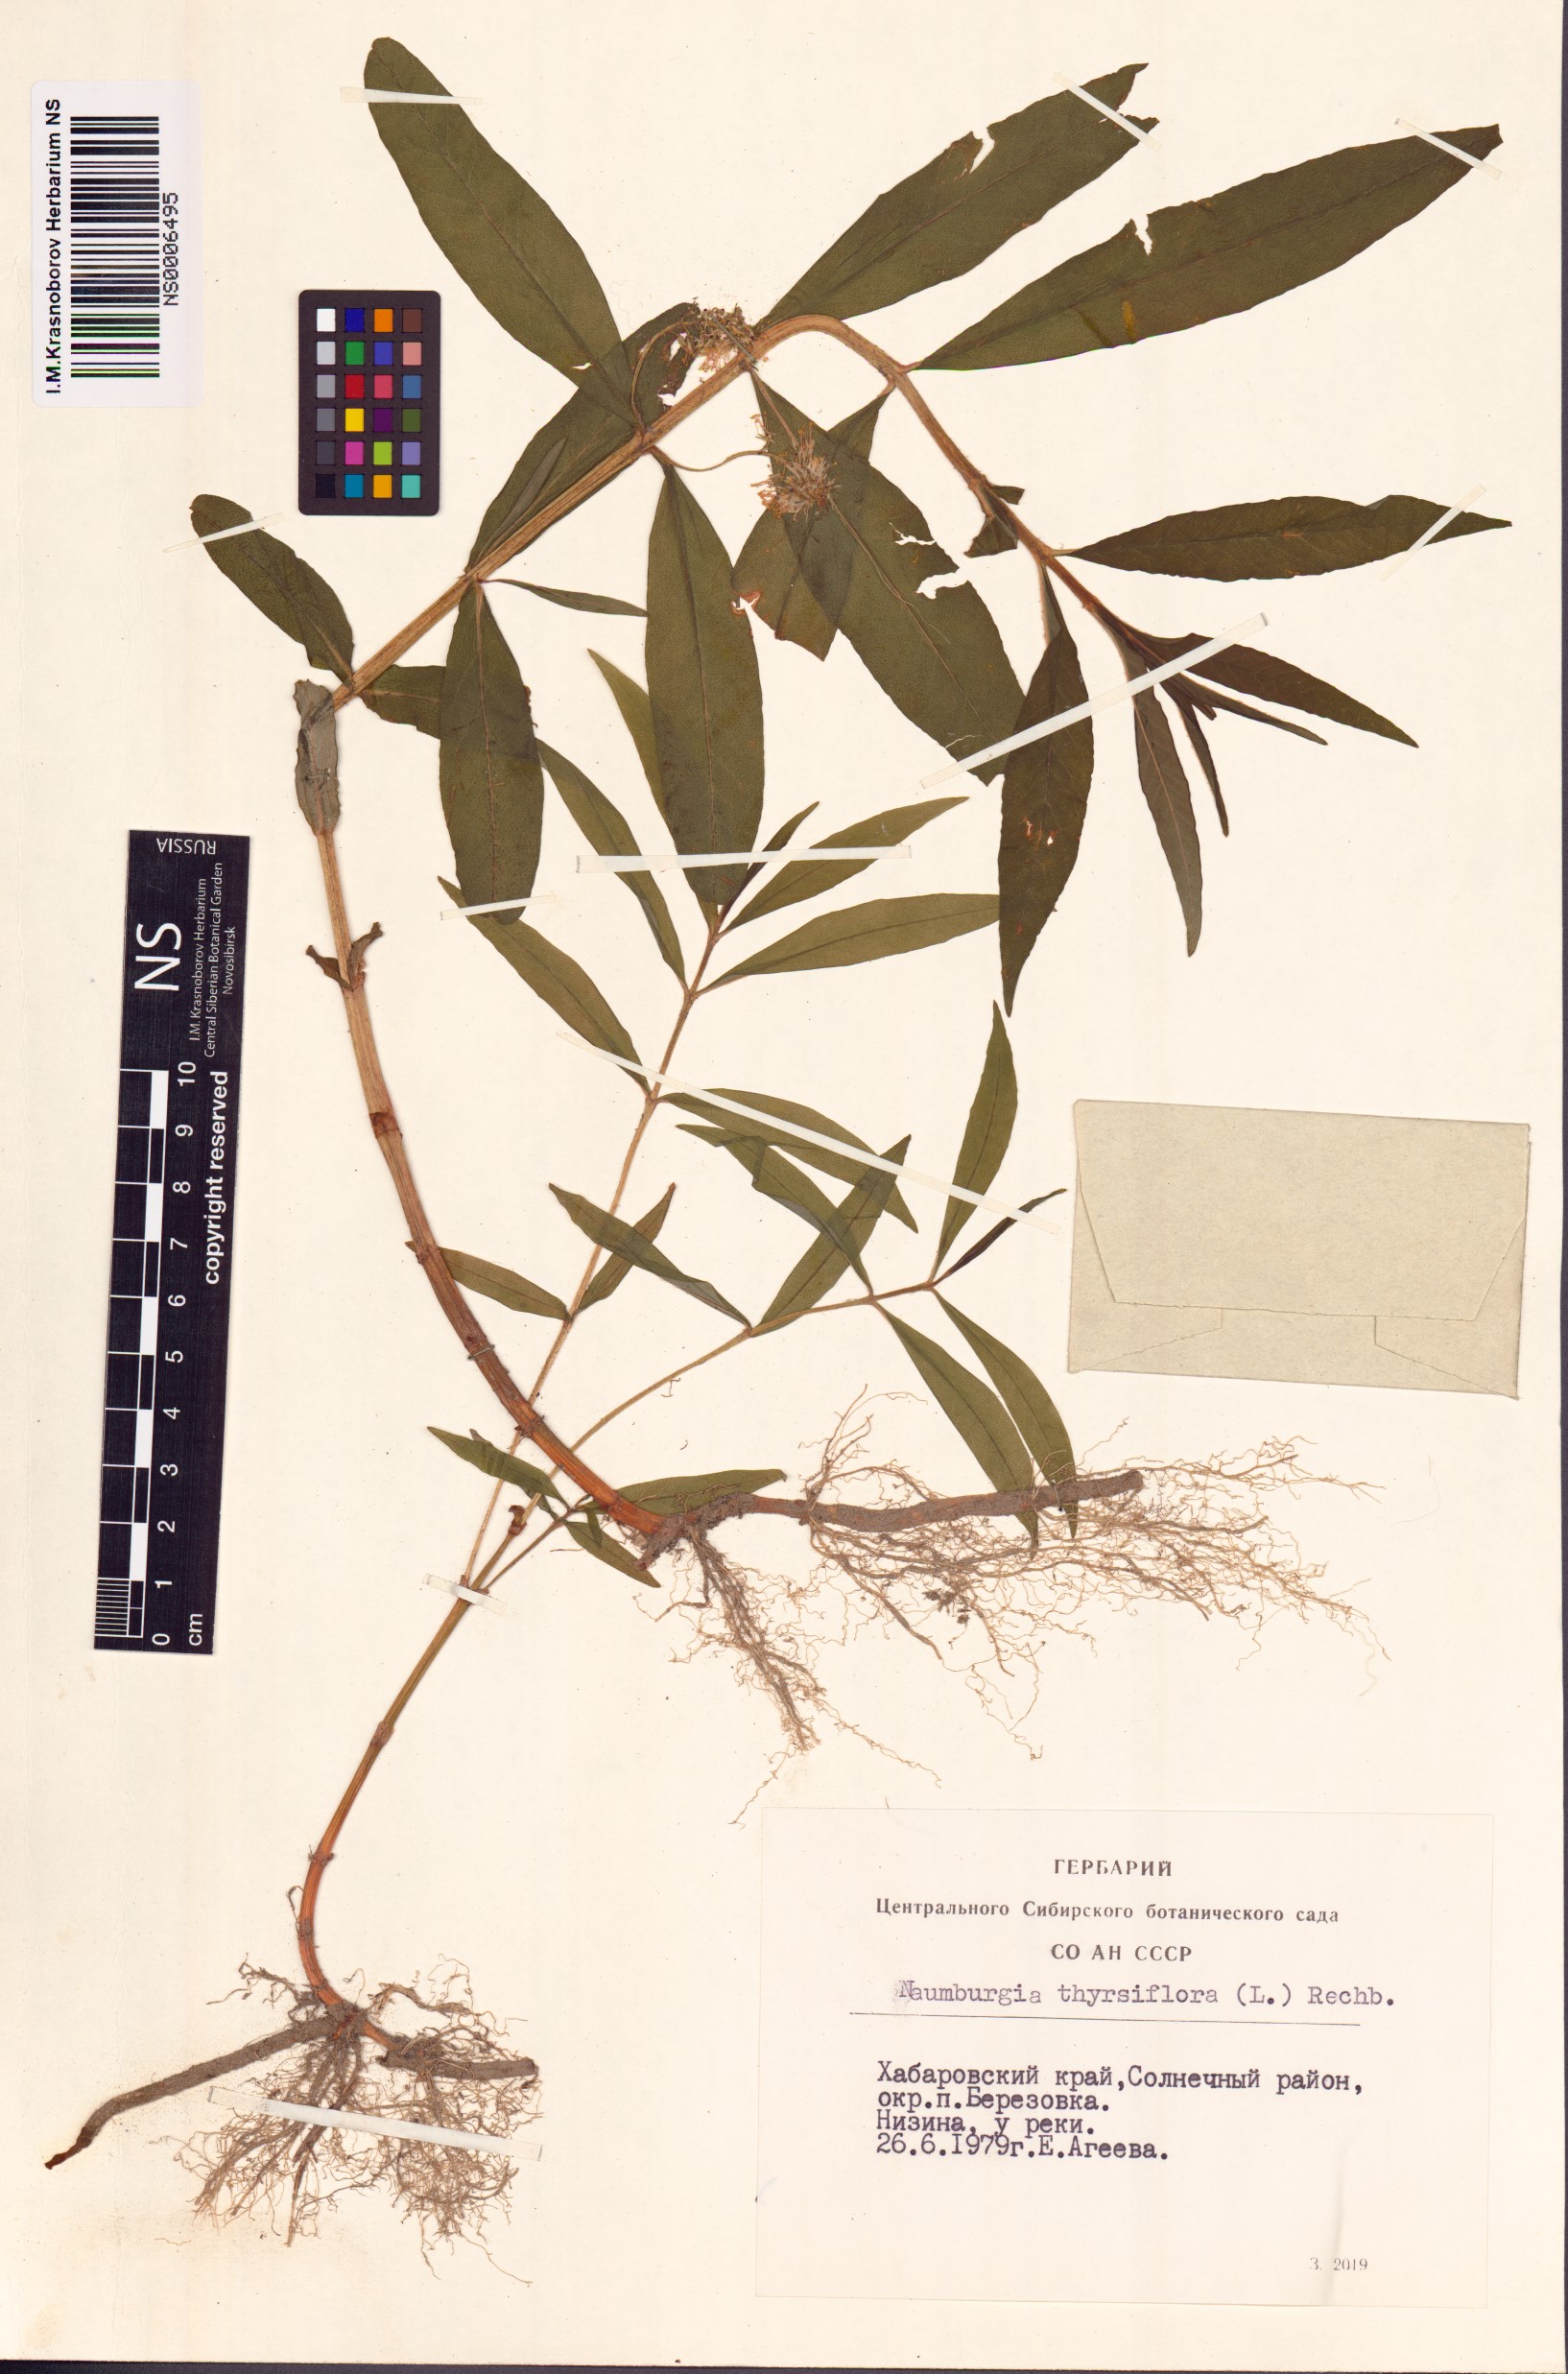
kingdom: Plantae
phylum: Tracheophyta
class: Magnoliopsida
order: Ericales
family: Primulaceae
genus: Lysimachia
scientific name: Lysimachia thyrsiflora
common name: Tufted loosestrife
